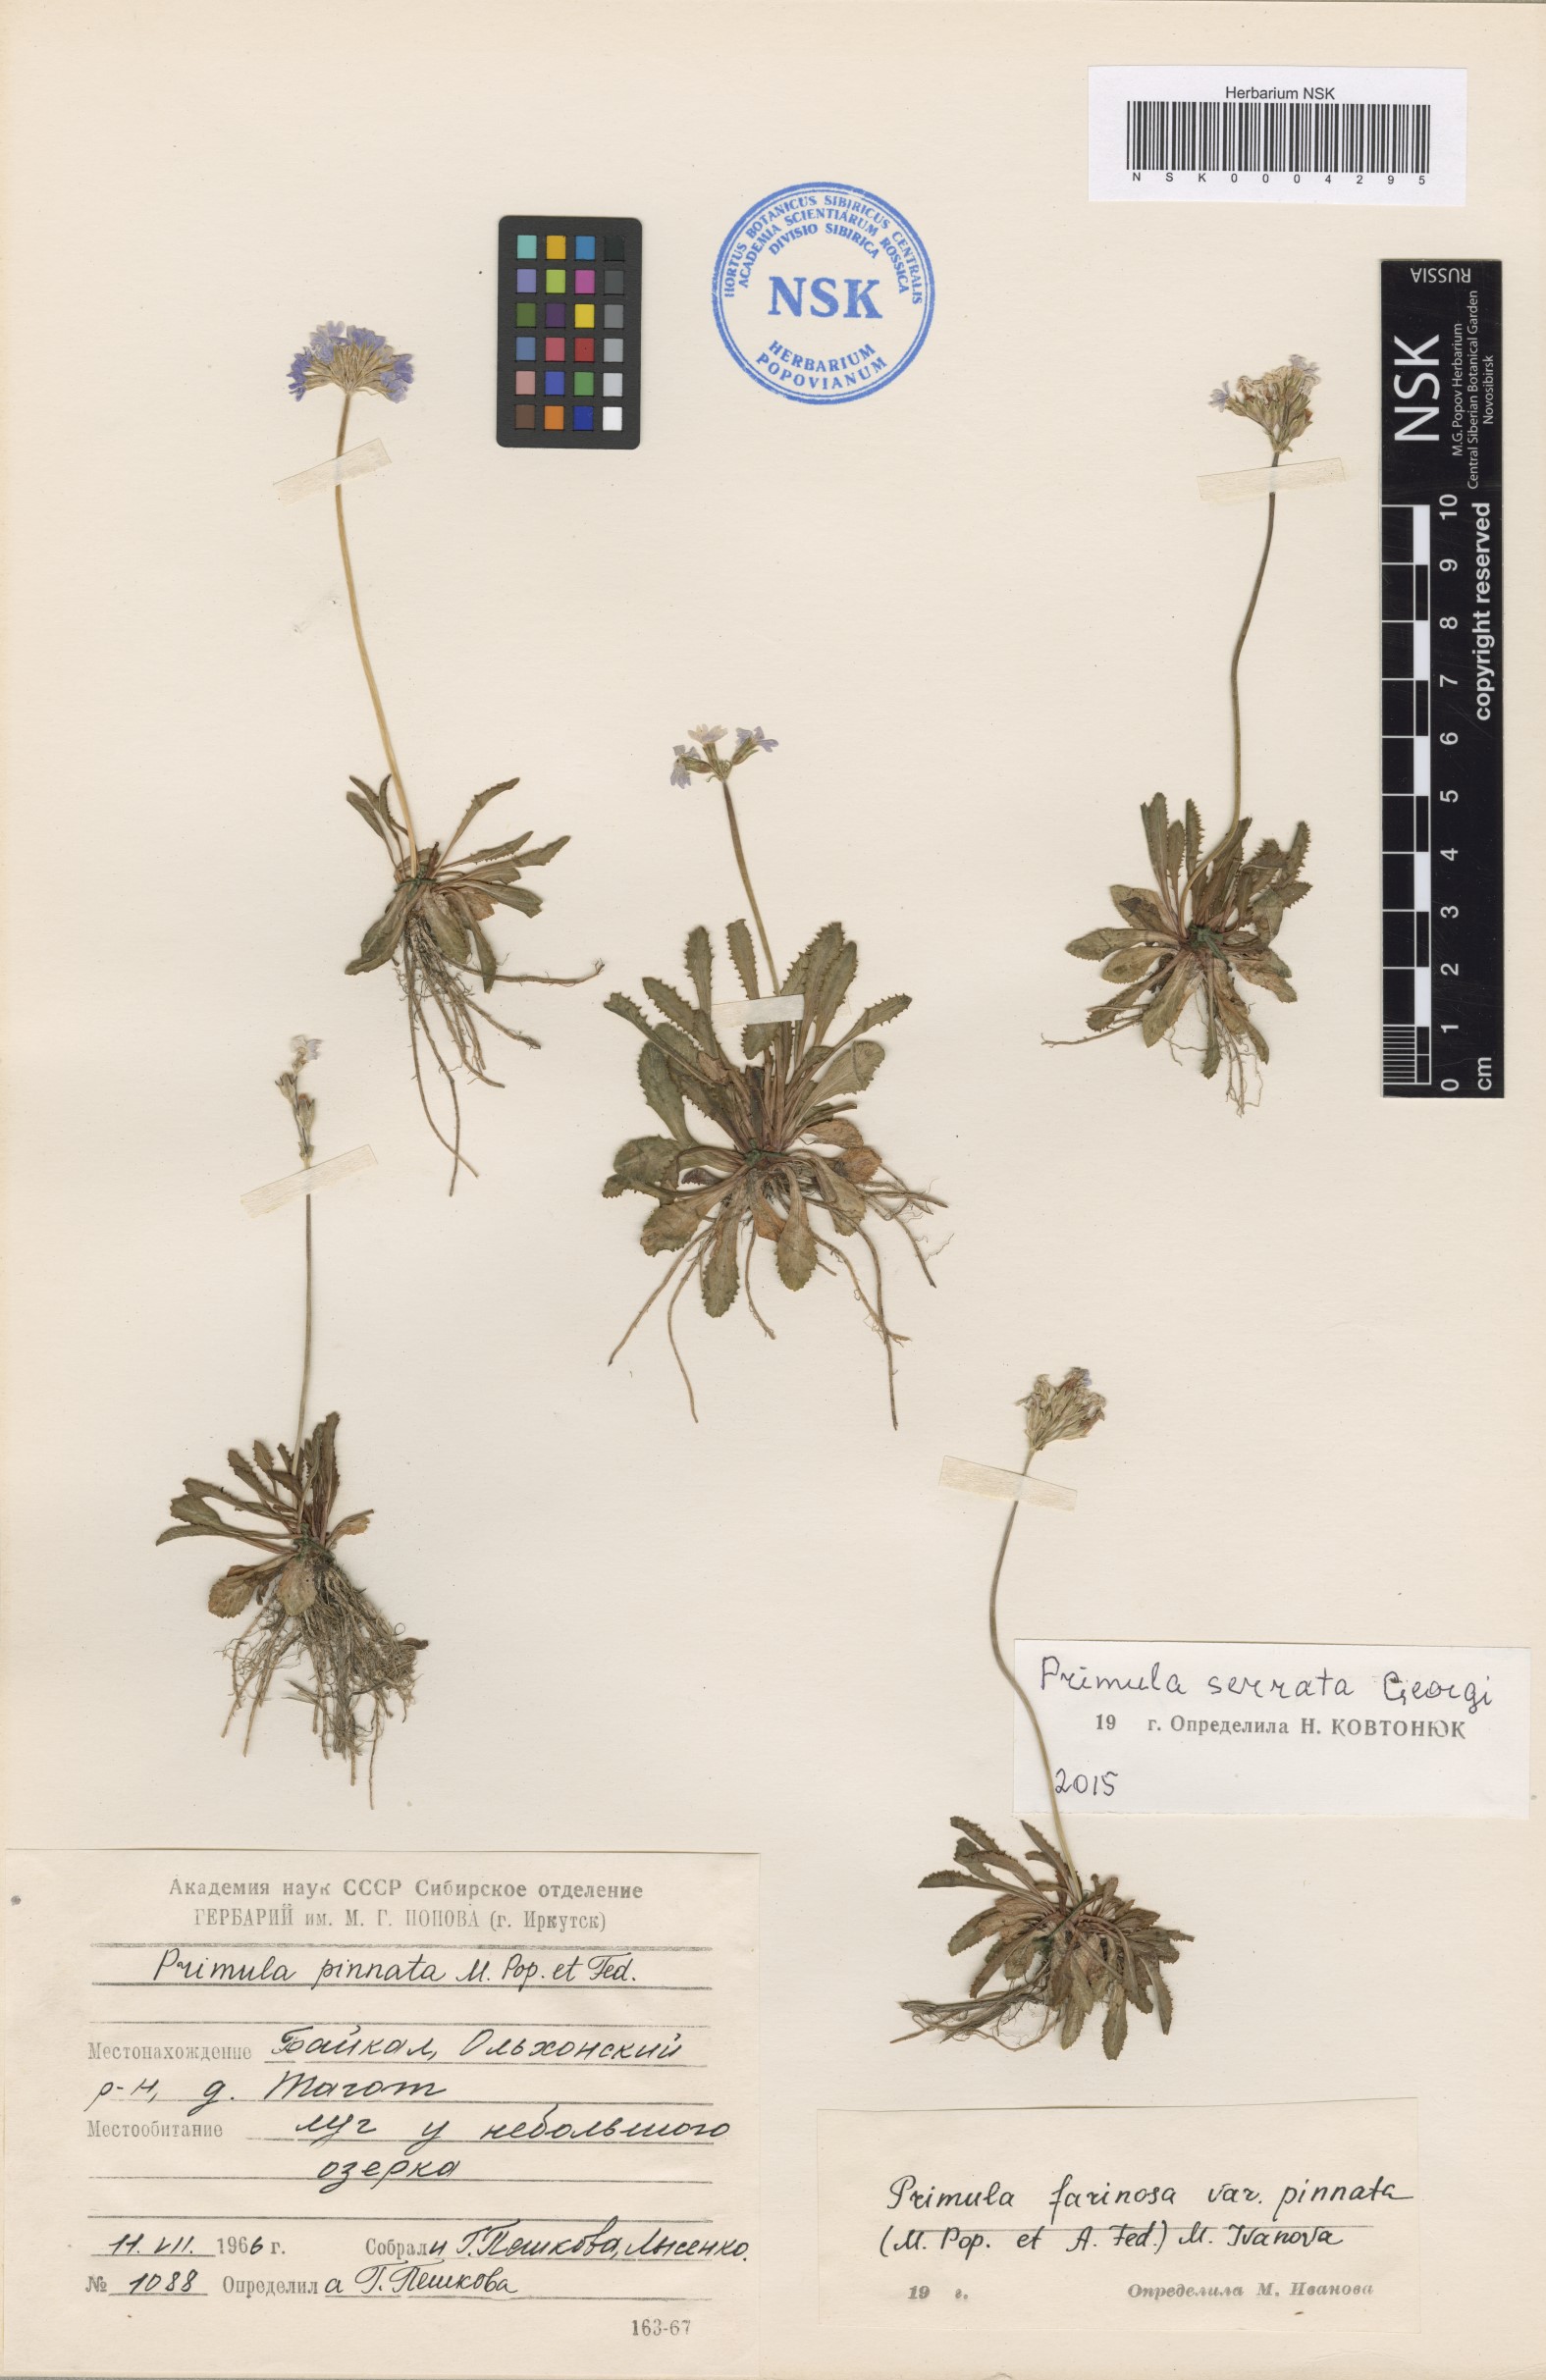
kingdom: Plantae
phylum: Tracheophyta
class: Magnoliopsida
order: Ericales
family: Primulaceae
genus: Primula
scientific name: Primula serrata
